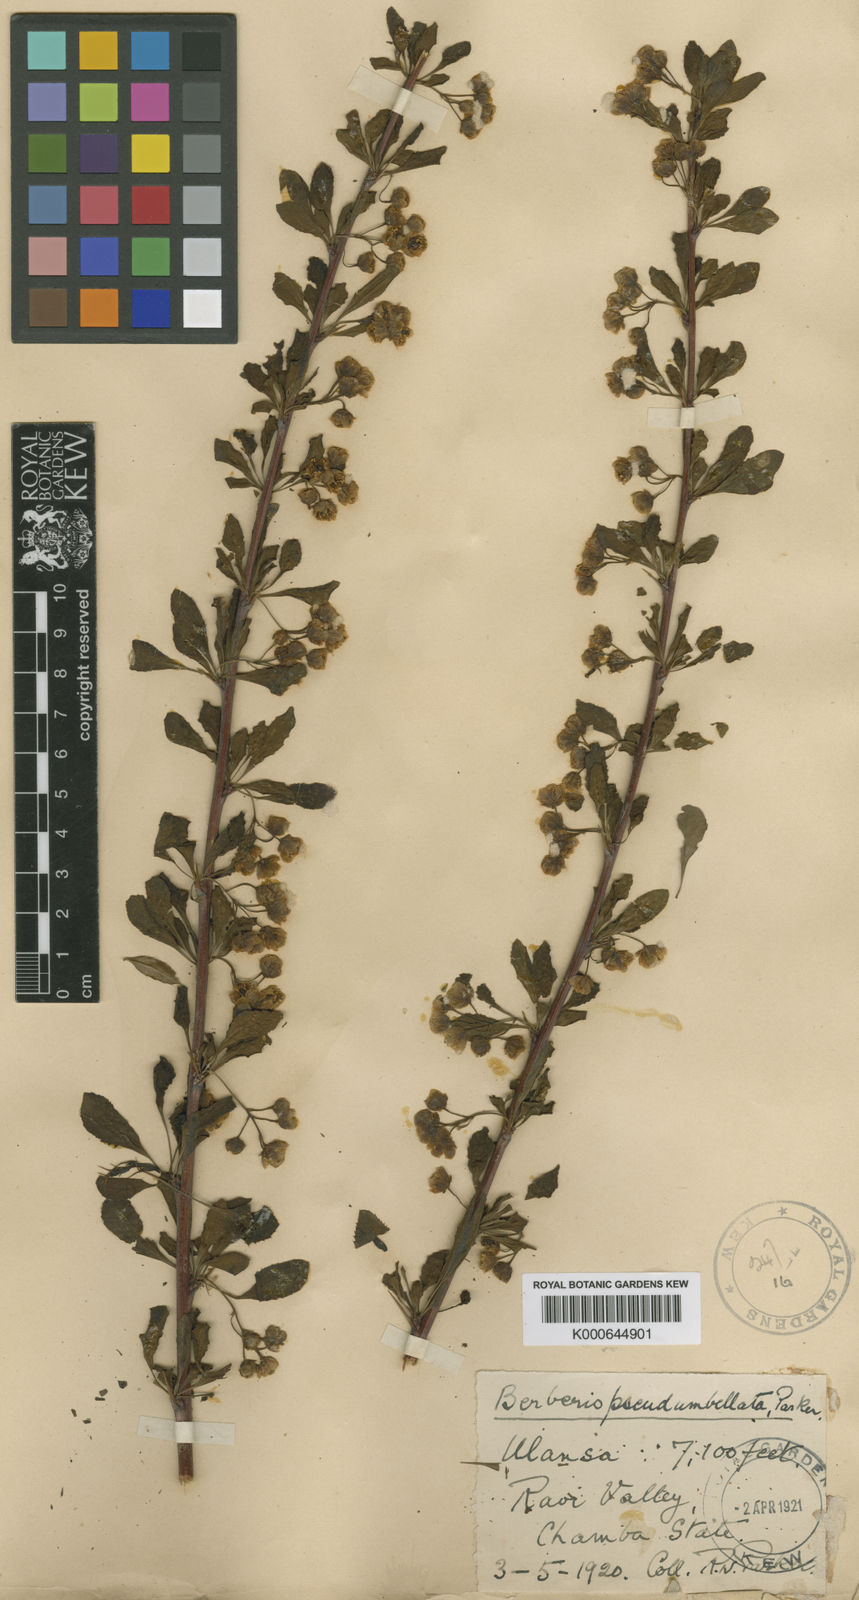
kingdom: Plantae
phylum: Tracheophyta
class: Magnoliopsida
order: Ranunculales
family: Berberidaceae
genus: Berberis
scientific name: Berberis pseudumbellata
